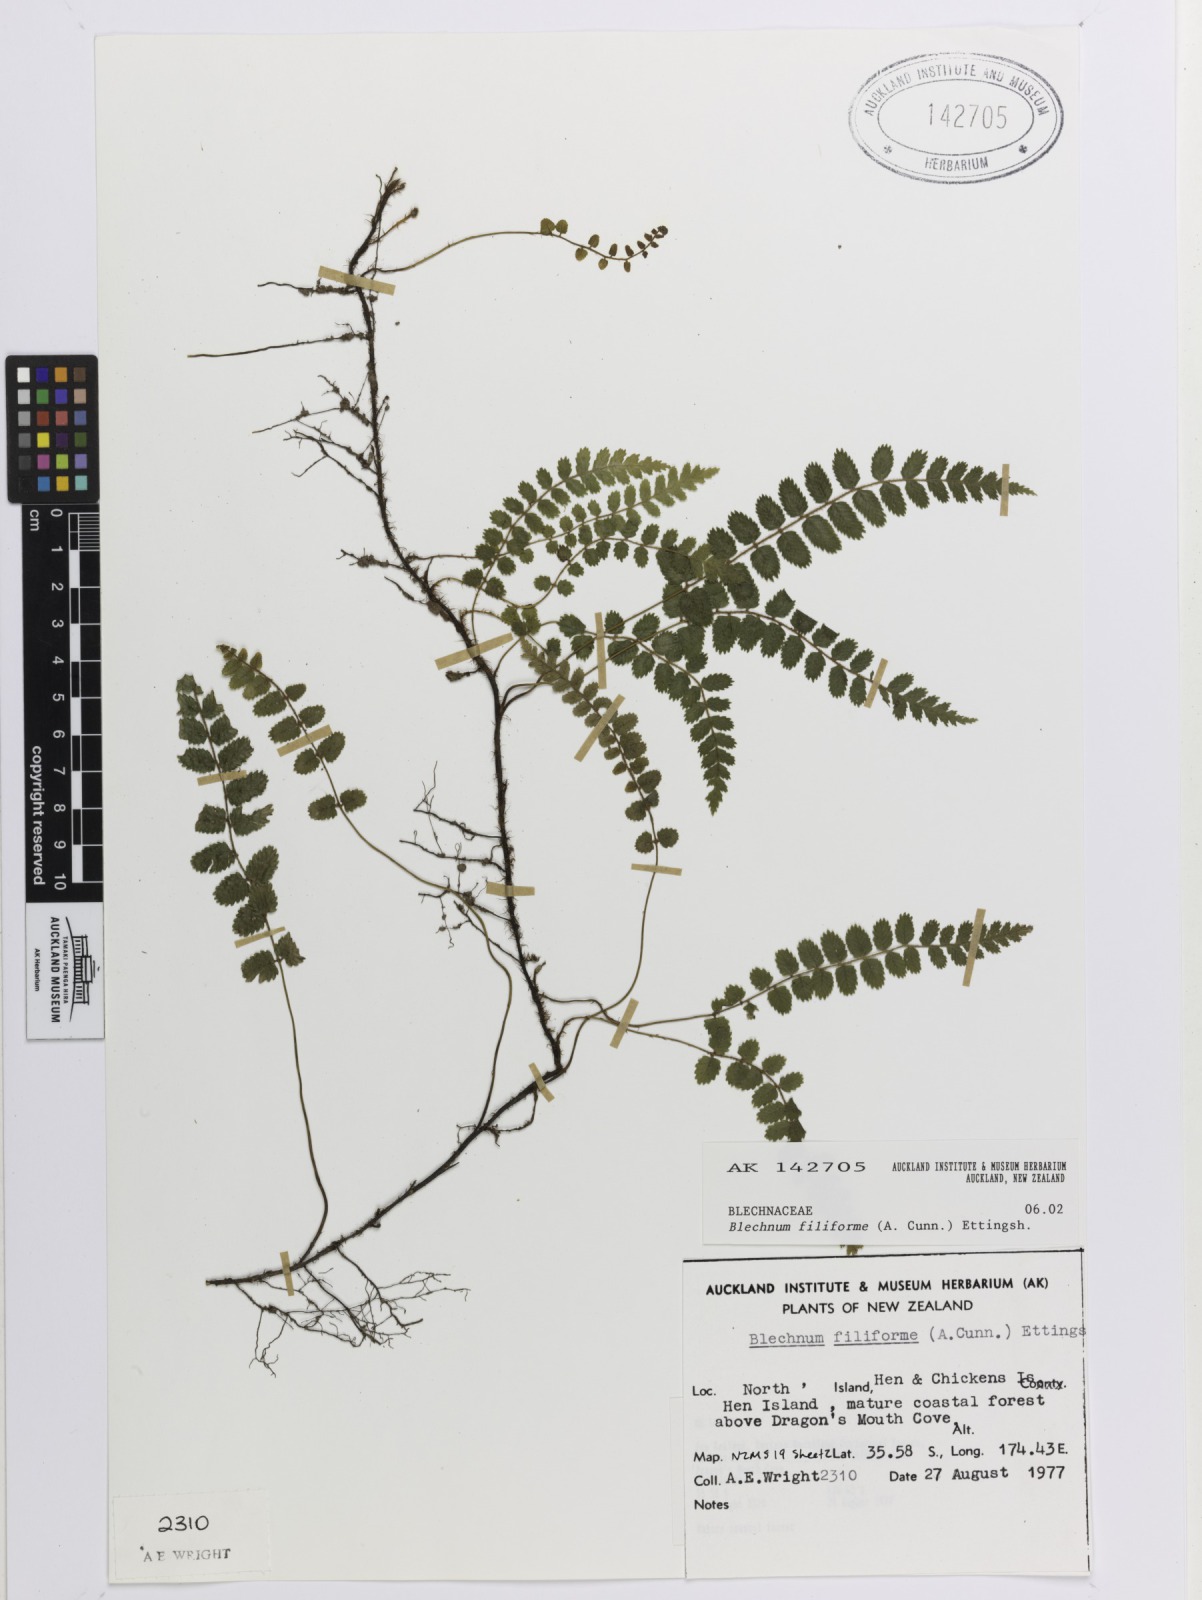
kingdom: Plantae
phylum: Tracheophyta
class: Polypodiopsida
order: Polypodiales
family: Blechnaceae
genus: Icarus
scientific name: Icarus filiformis
